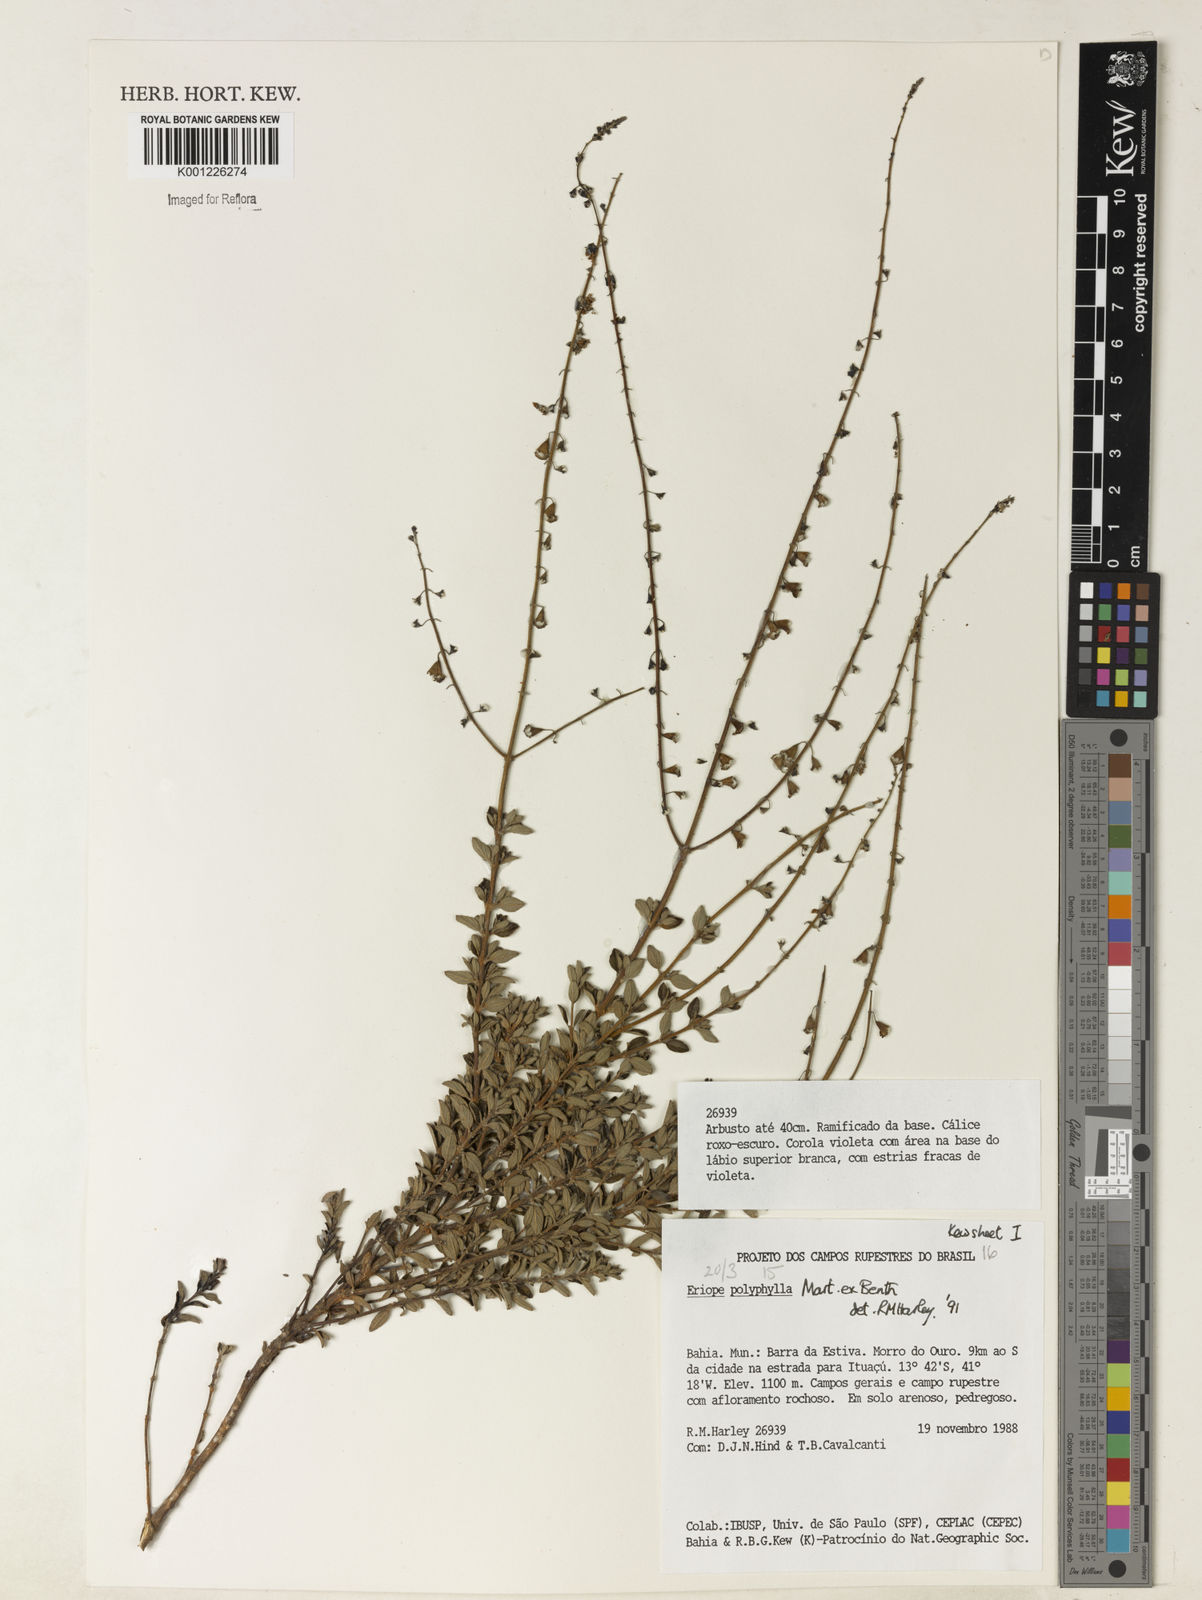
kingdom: Plantae
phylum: Tracheophyta
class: Magnoliopsida
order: Lamiales
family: Lamiaceae
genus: Eriope
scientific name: Eriope polyphylla
